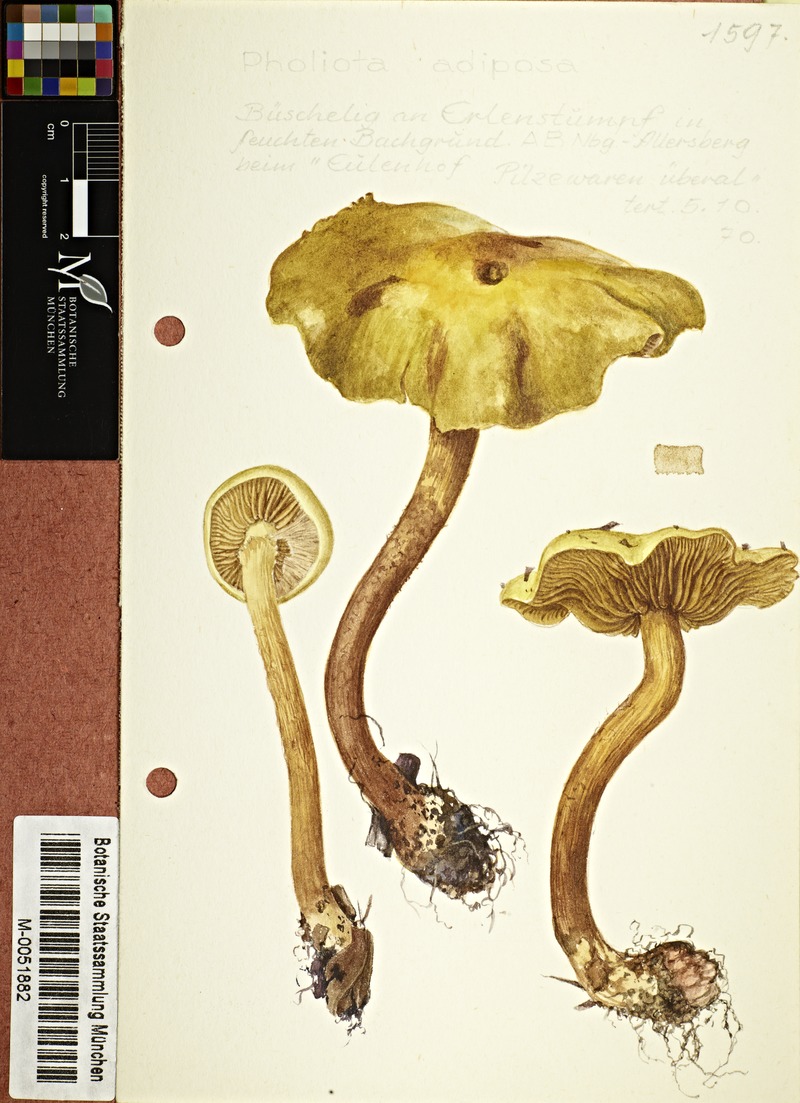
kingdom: Fungi
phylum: Basidiomycota
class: Agaricomycetes
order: Agaricales
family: Strophariaceae
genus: Pholiota
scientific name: Pholiota adiposa
